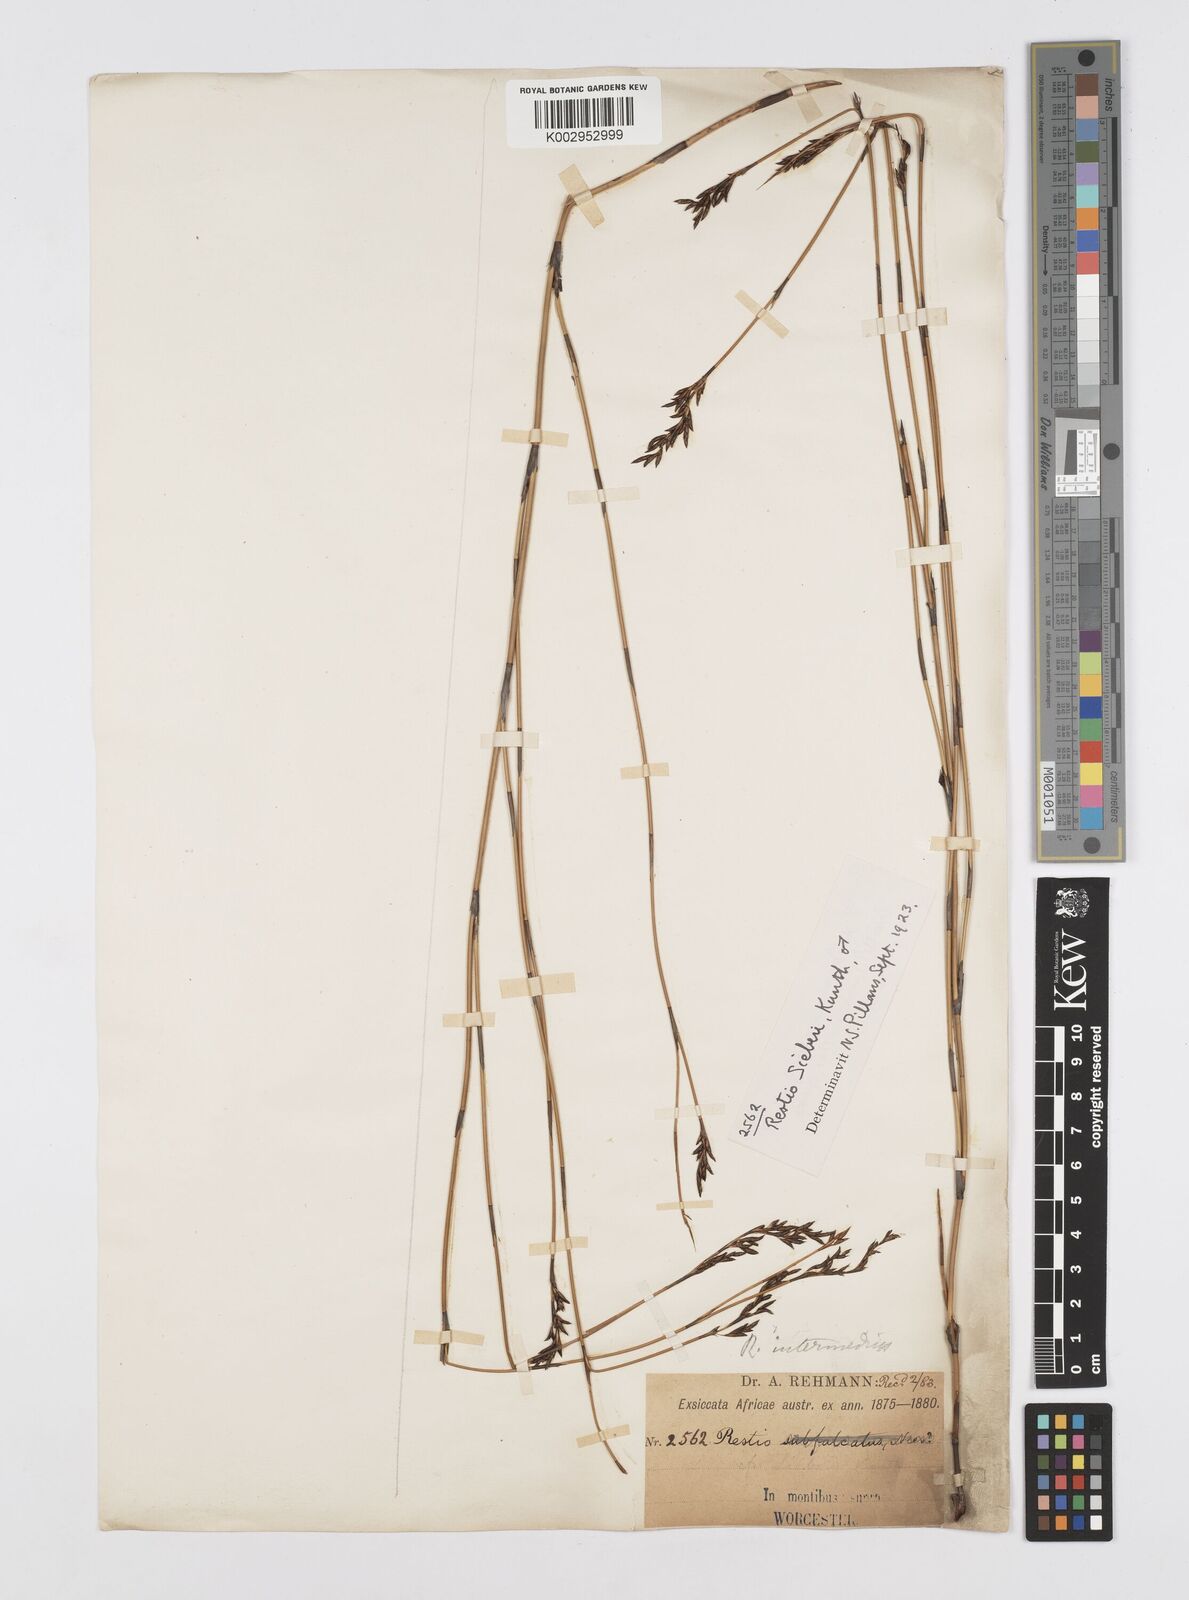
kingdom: Plantae
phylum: Tracheophyta
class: Liliopsida
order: Poales
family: Restionaceae
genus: Restio
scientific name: Restio sieberi
